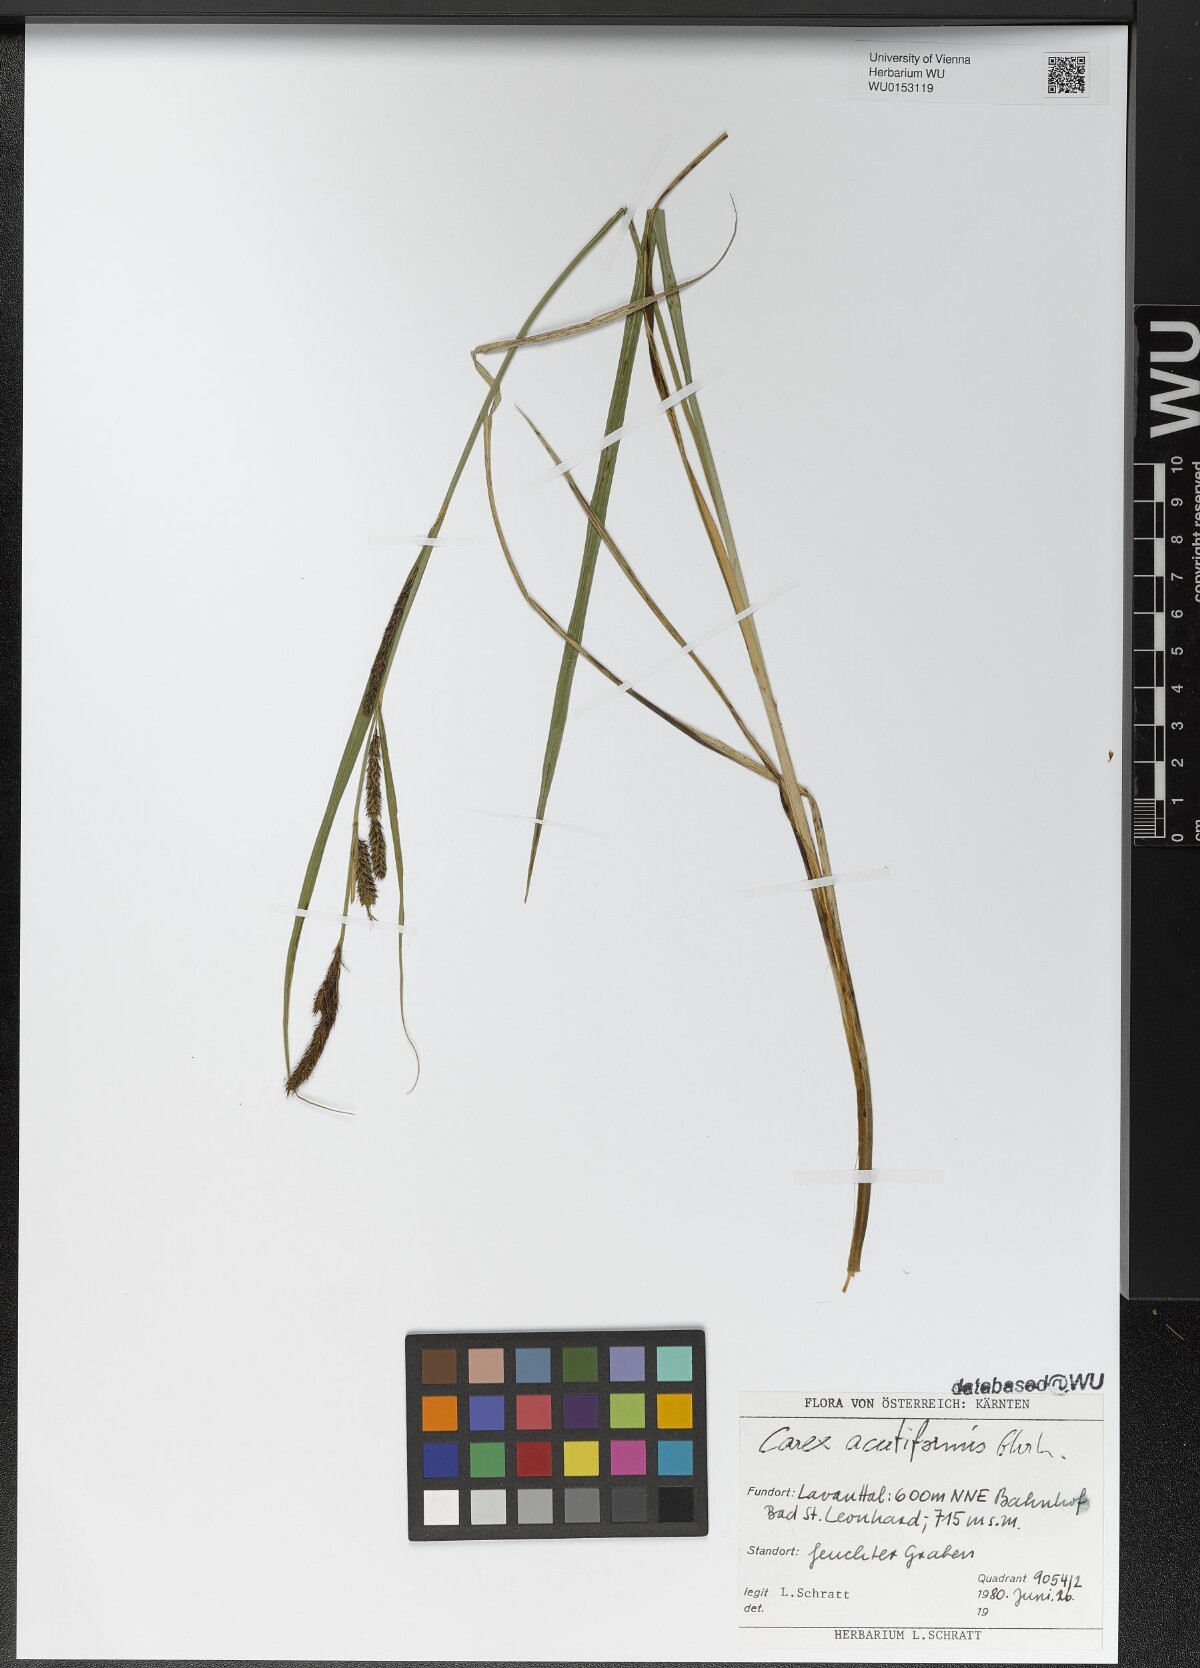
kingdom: Plantae
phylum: Tracheophyta
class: Liliopsida
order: Poales
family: Cyperaceae
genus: Carex
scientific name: Carex acutiformis
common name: Lesser pond-sedge
